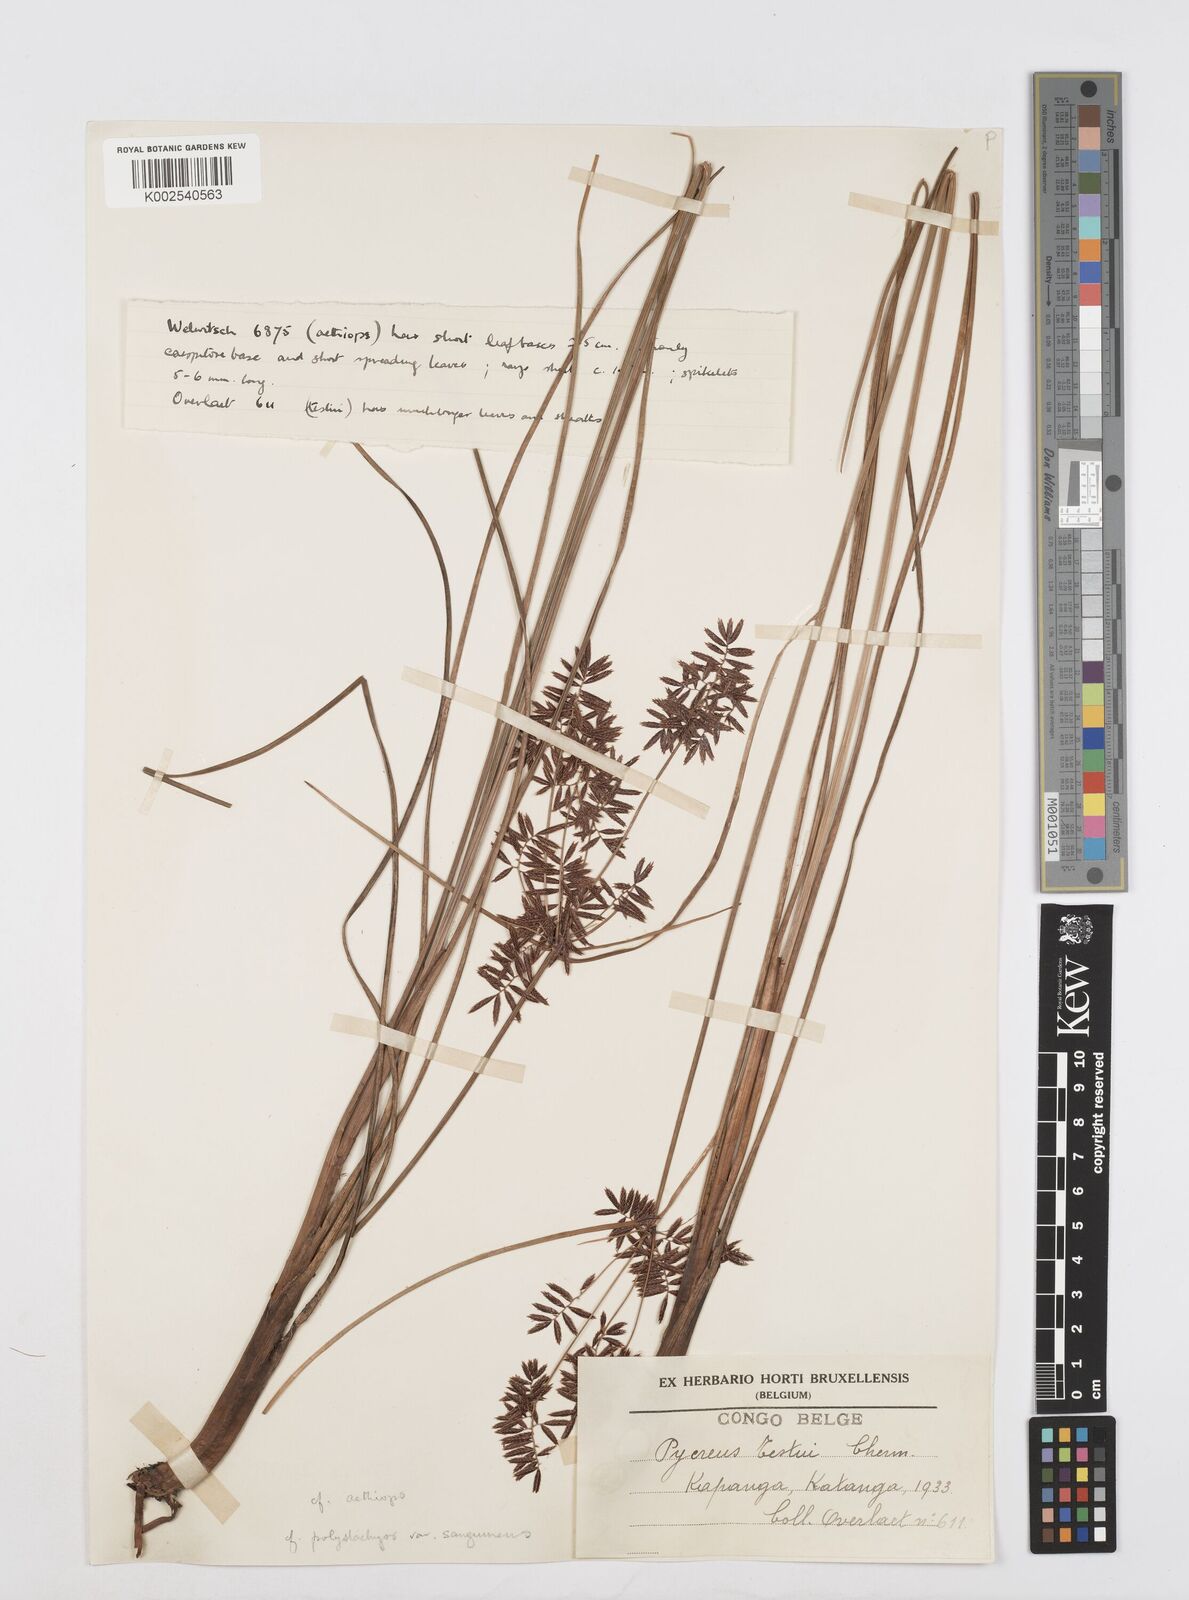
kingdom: Plantae
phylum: Tracheophyta
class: Liliopsida
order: Poales
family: Cyperaceae
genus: Cyperus
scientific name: Cyperus aethiops
